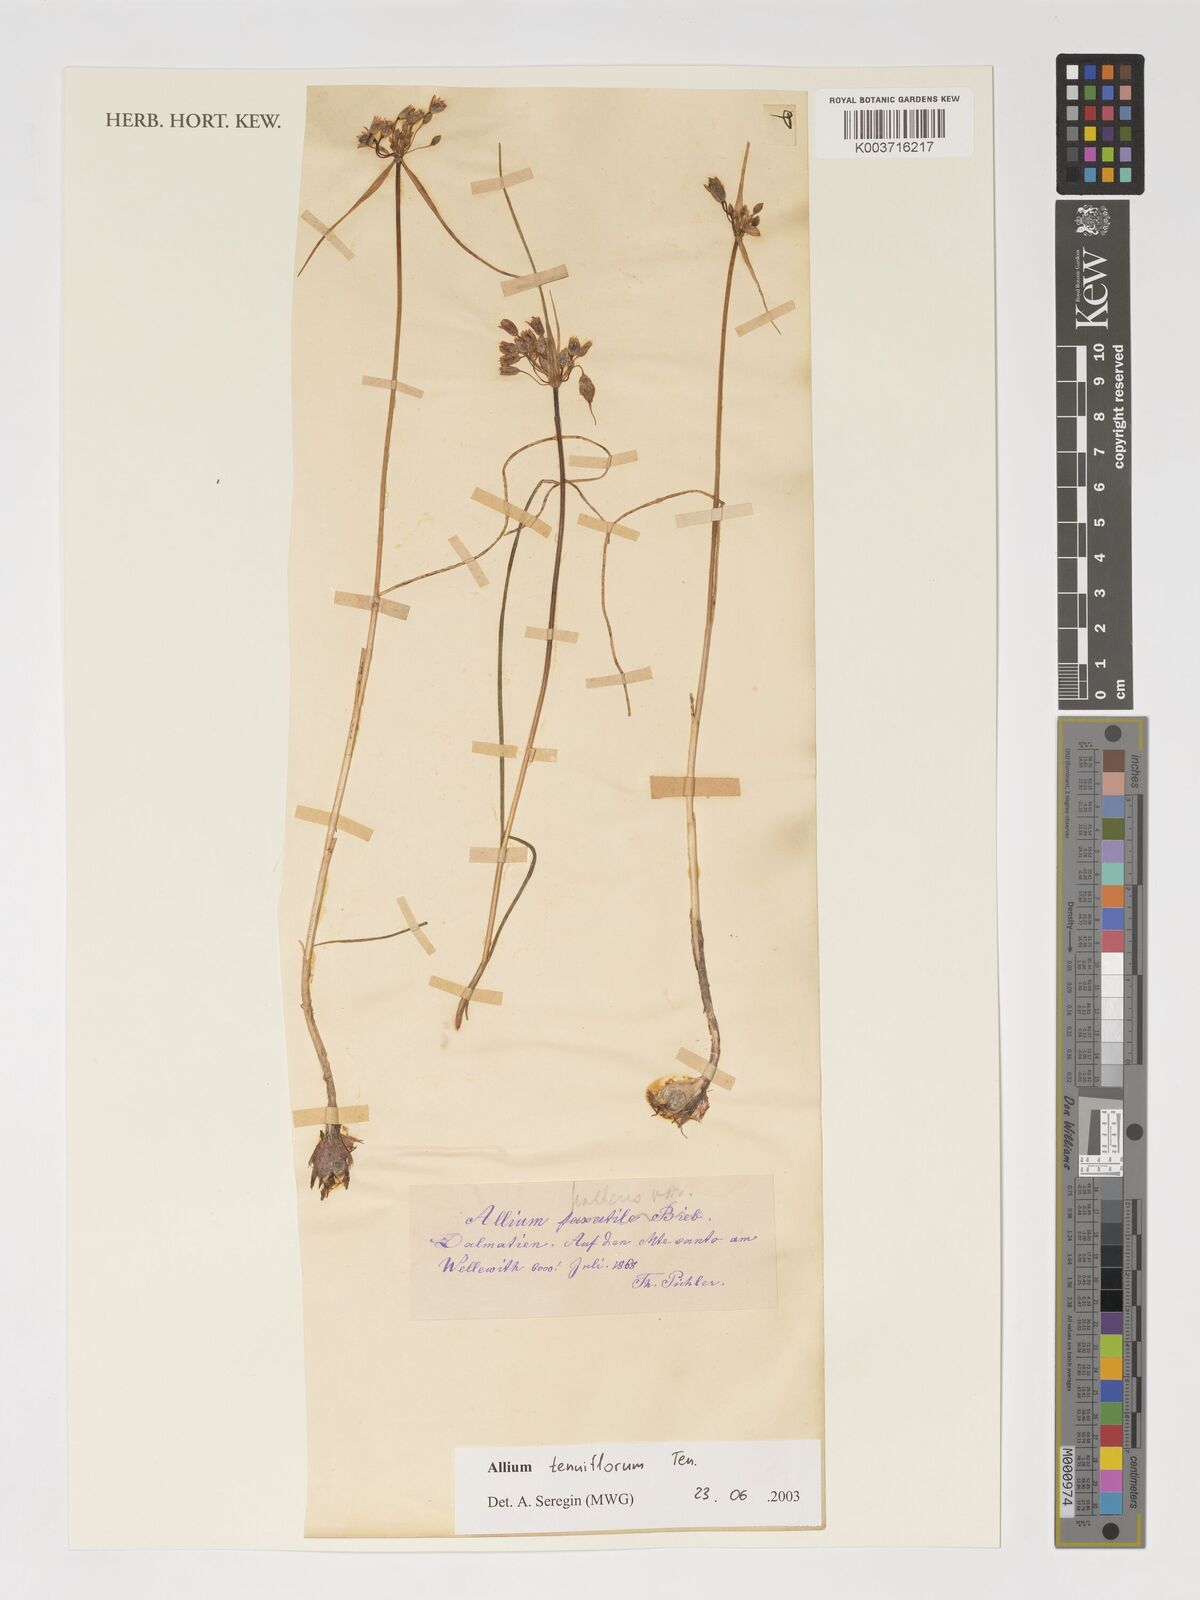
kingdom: Plantae
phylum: Tracheophyta
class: Liliopsida
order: Asparagales
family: Amaryllidaceae
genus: Allium
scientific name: Allium tenuiflorum
